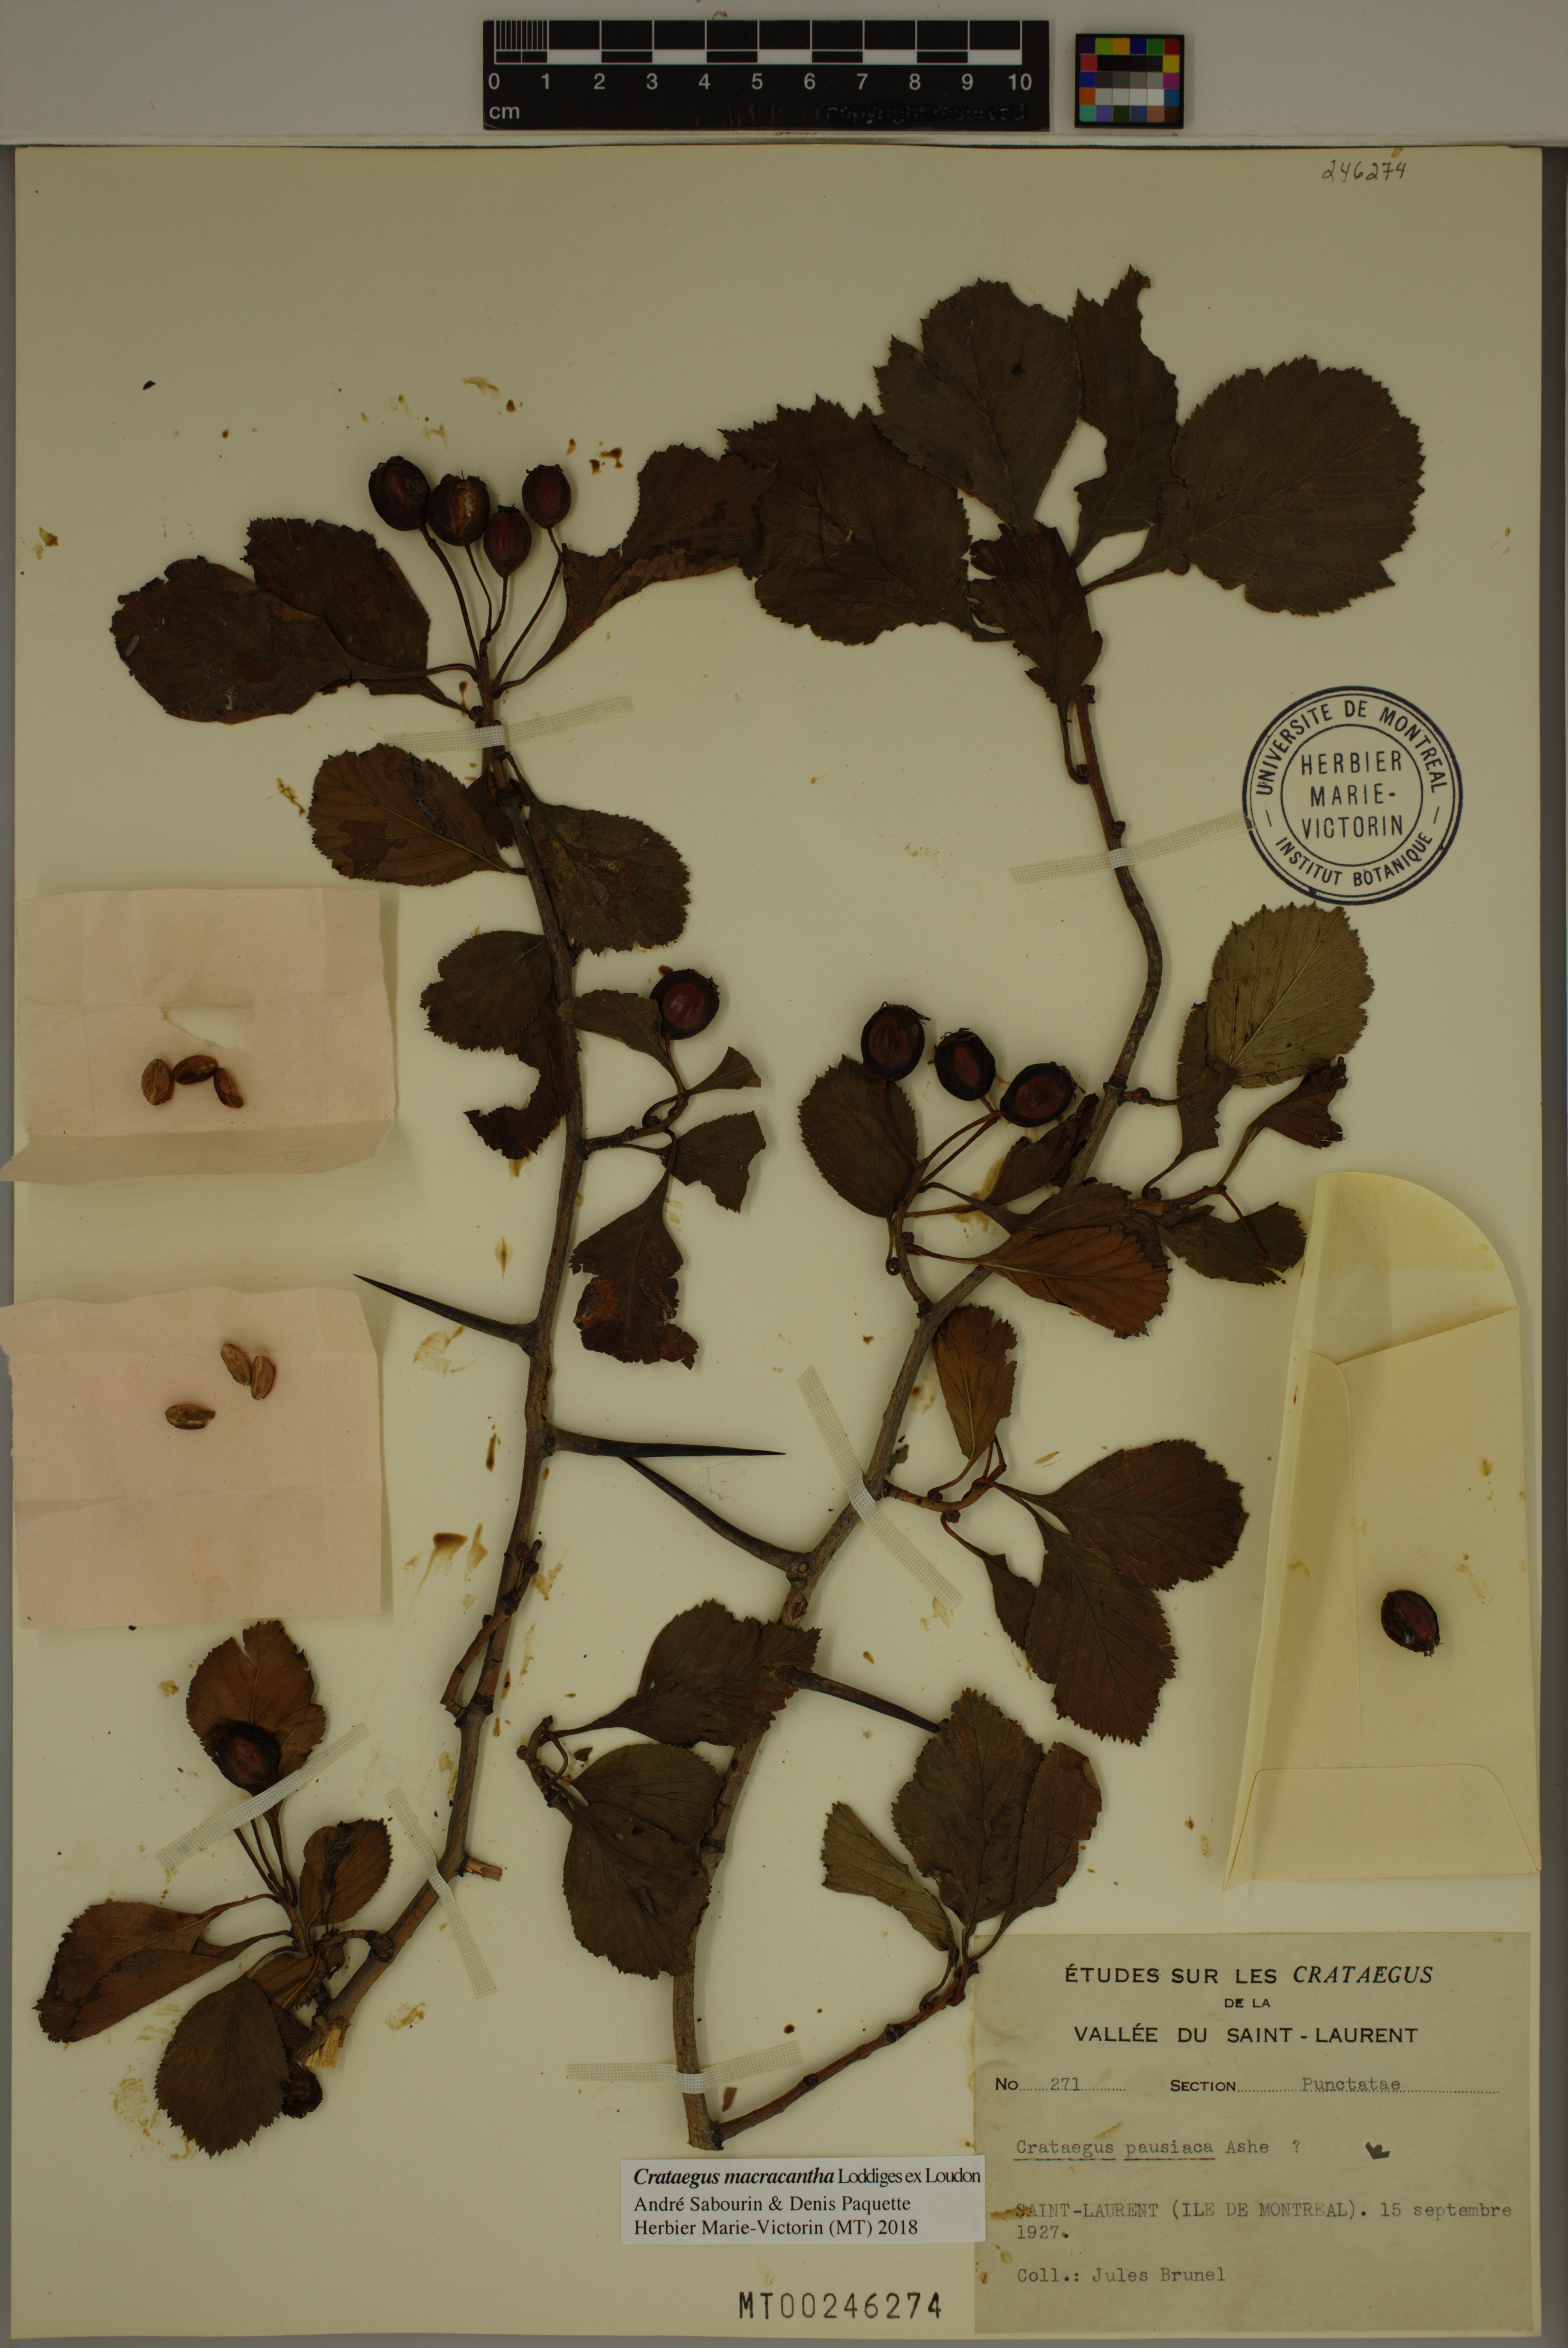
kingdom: Plantae
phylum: Tracheophyta
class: Magnoliopsida
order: Rosales
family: Rosaceae
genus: Crataegus
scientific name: Crataegus macracantha
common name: Large-thorn hawthorn
